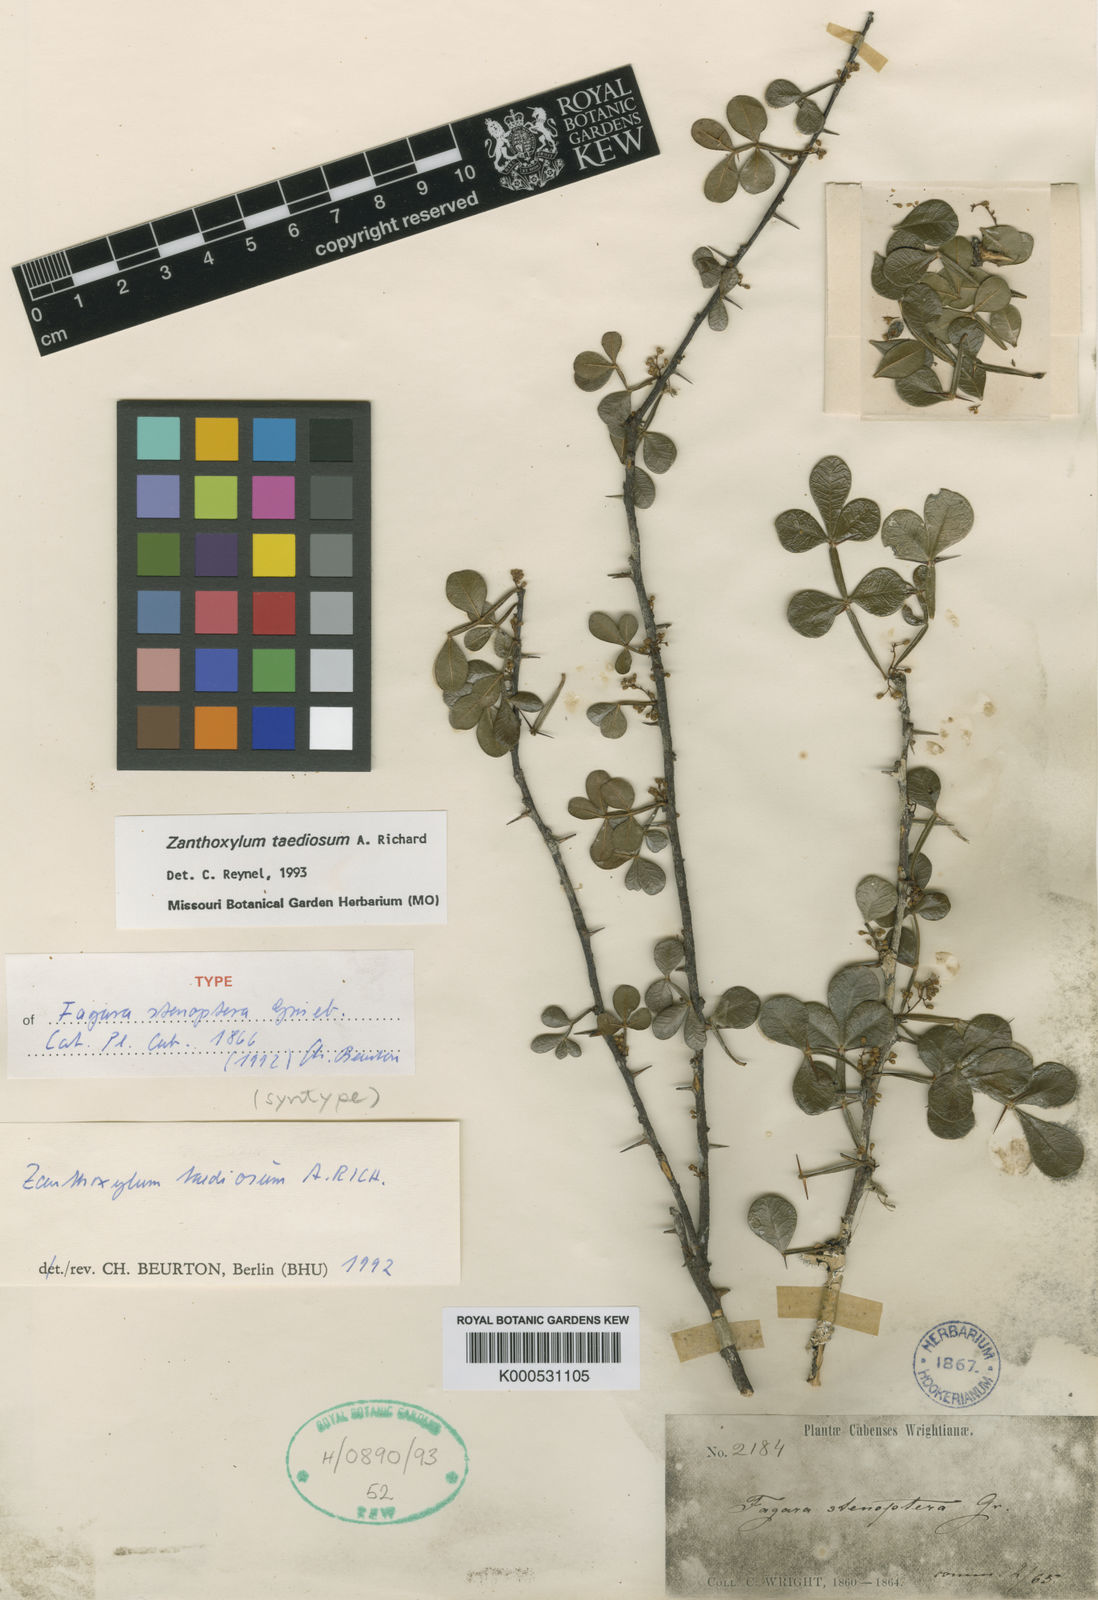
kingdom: Plantae
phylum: Tracheophyta
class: Magnoliopsida
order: Sapindales
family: Rutaceae
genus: Zanthoxylum
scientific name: Zanthoxylum taediosum
